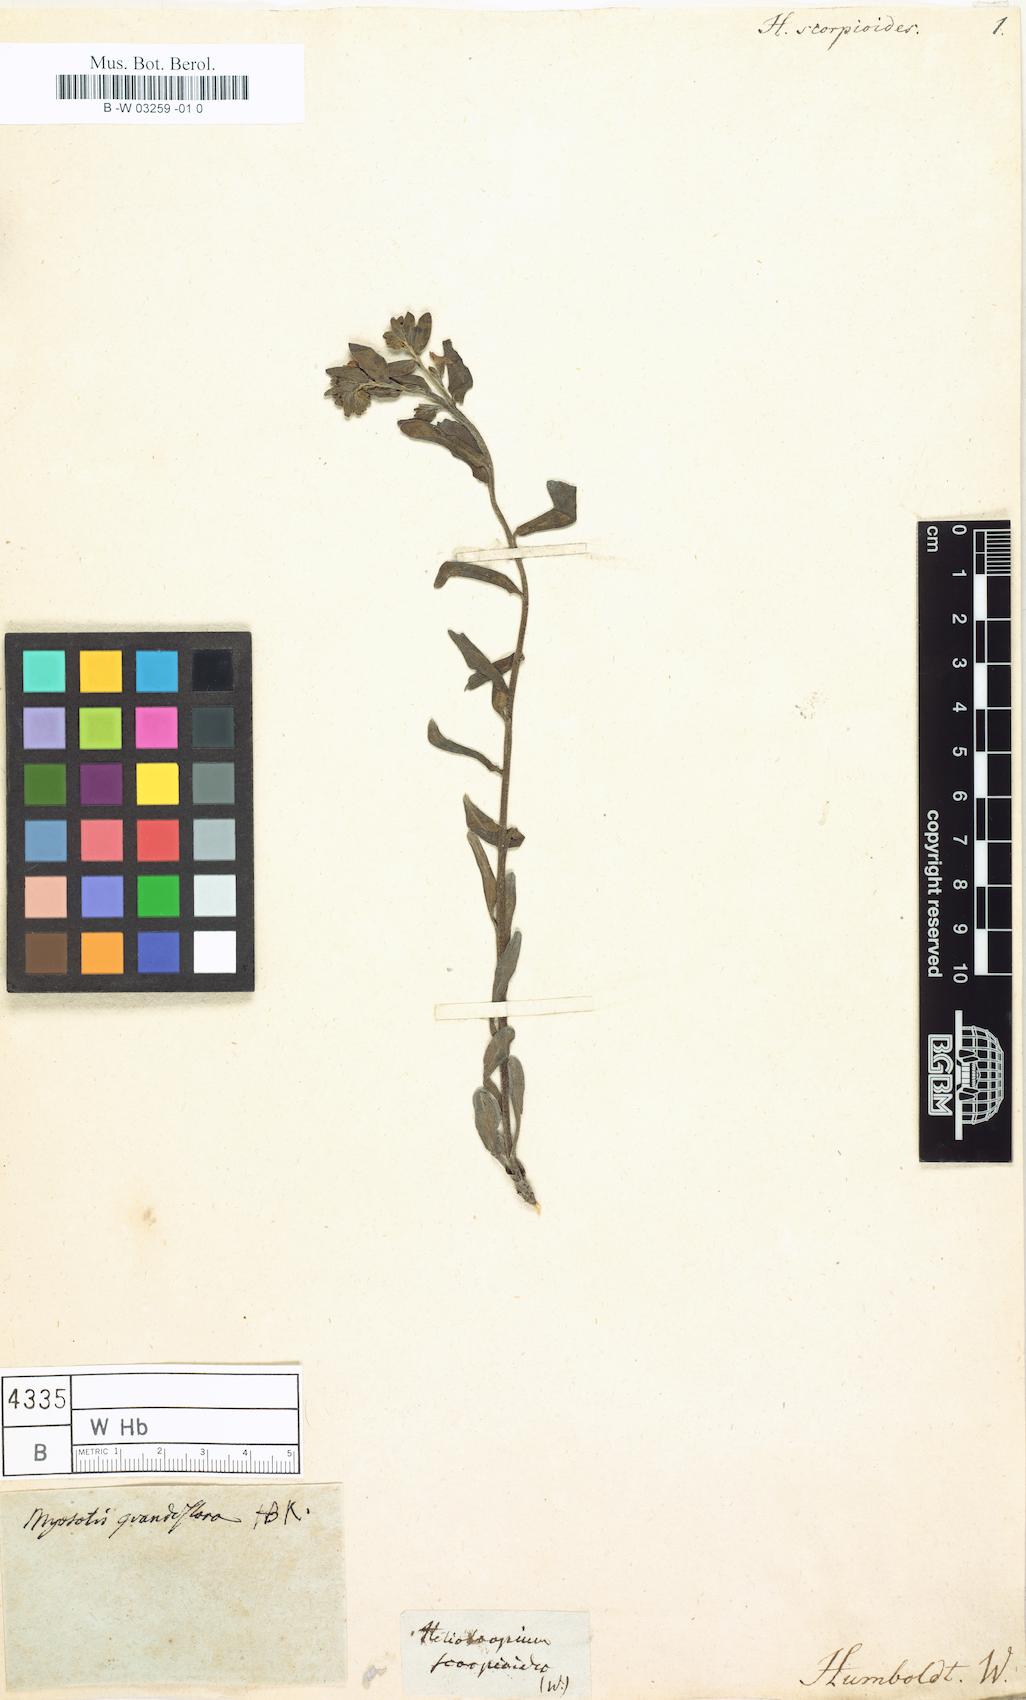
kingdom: Plantae
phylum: Tracheophyta
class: Magnoliopsida
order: Boraginales
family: Heliotropiaceae
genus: Heliotropium
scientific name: Heliotropium angiospermum
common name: Eye bright
